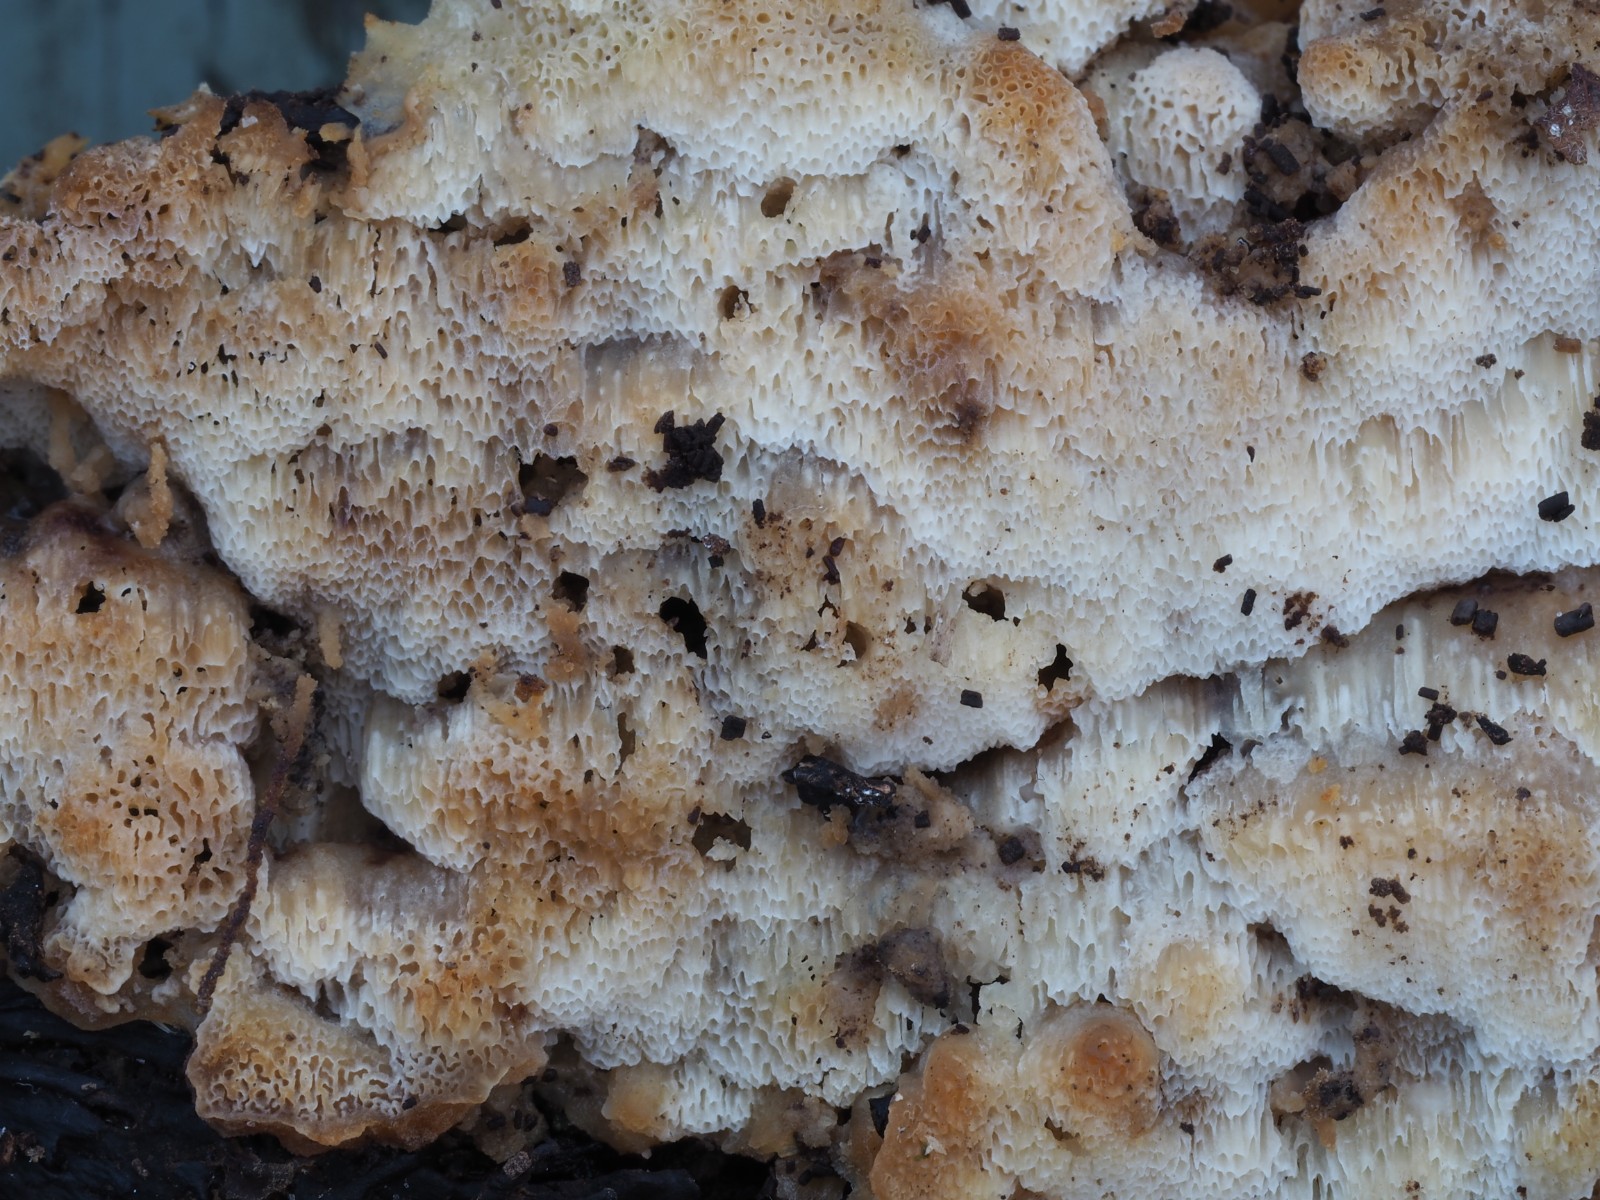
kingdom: Fungi
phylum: Basidiomycota
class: Agaricomycetes
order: Polyporales
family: Meripilaceae
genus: Rigidoporus
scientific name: Rigidoporus sanguinolentus
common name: blod-skorpeporesvamp
